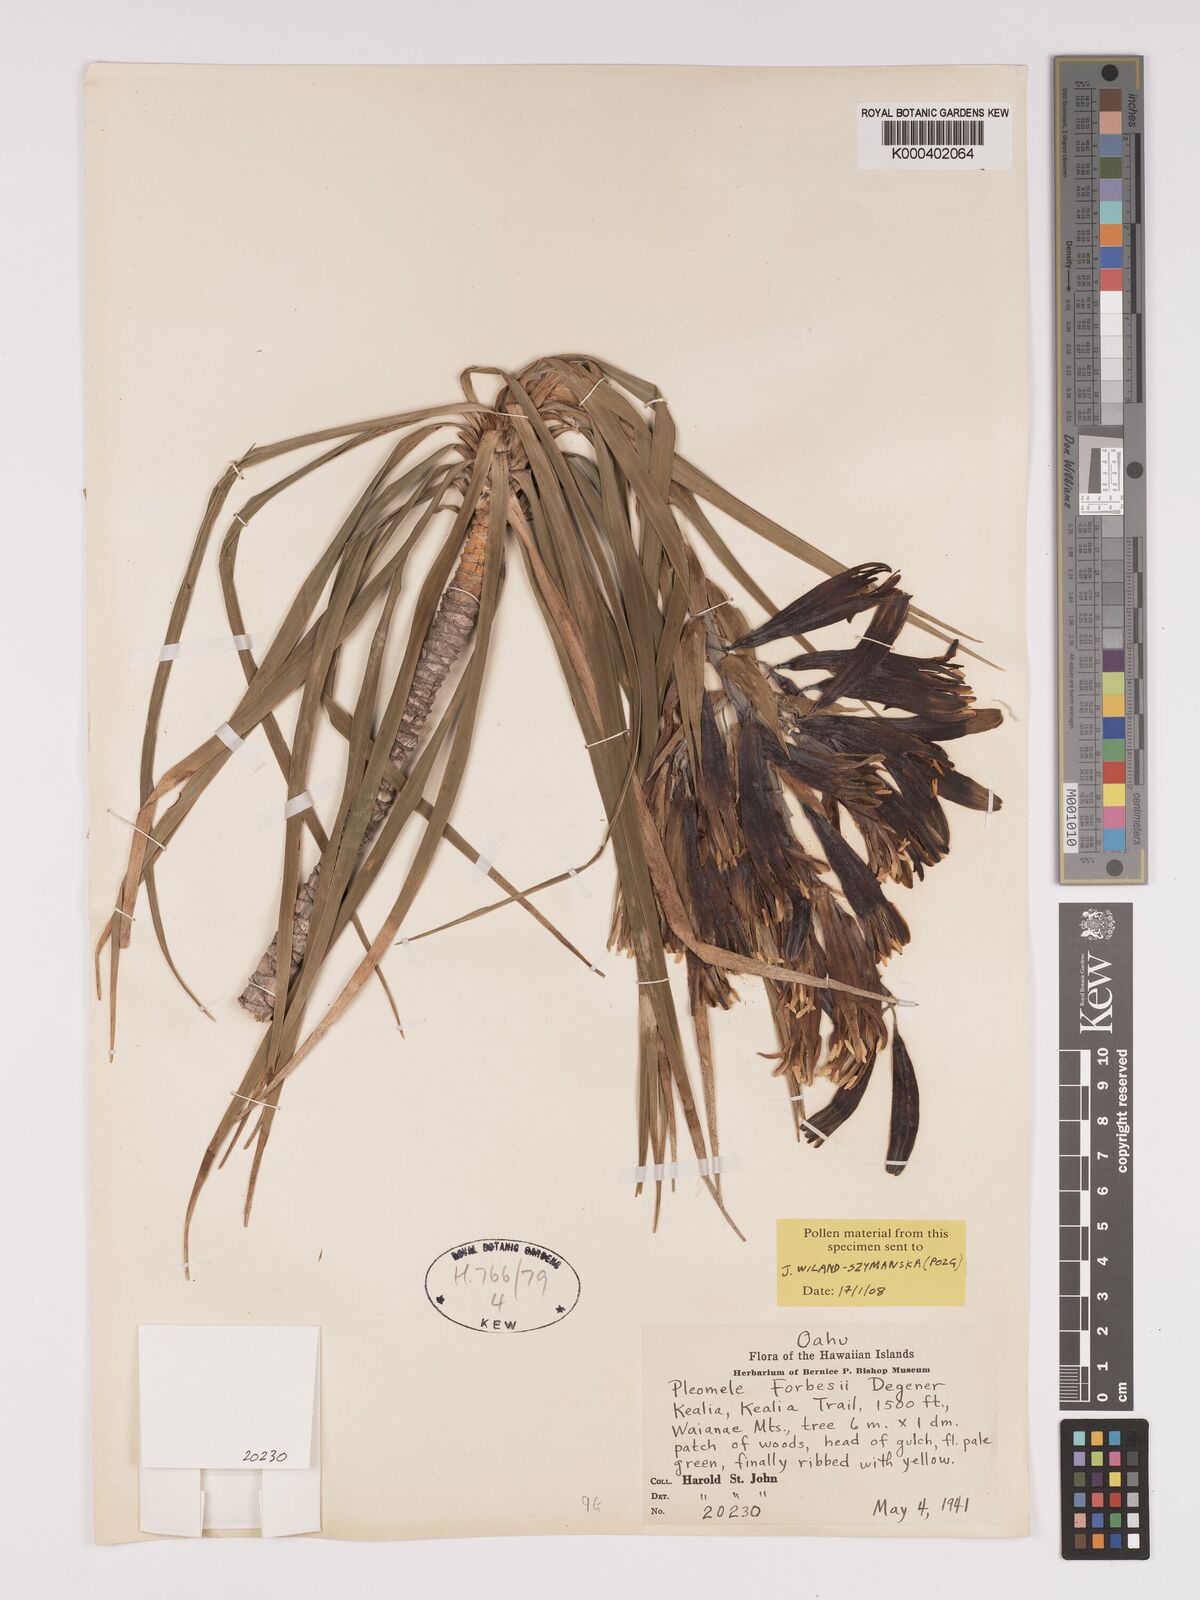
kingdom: Plantae
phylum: Tracheophyta
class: Liliopsida
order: Asparagales
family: Asparagaceae
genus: Dracaena
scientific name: Dracaena forbesii
